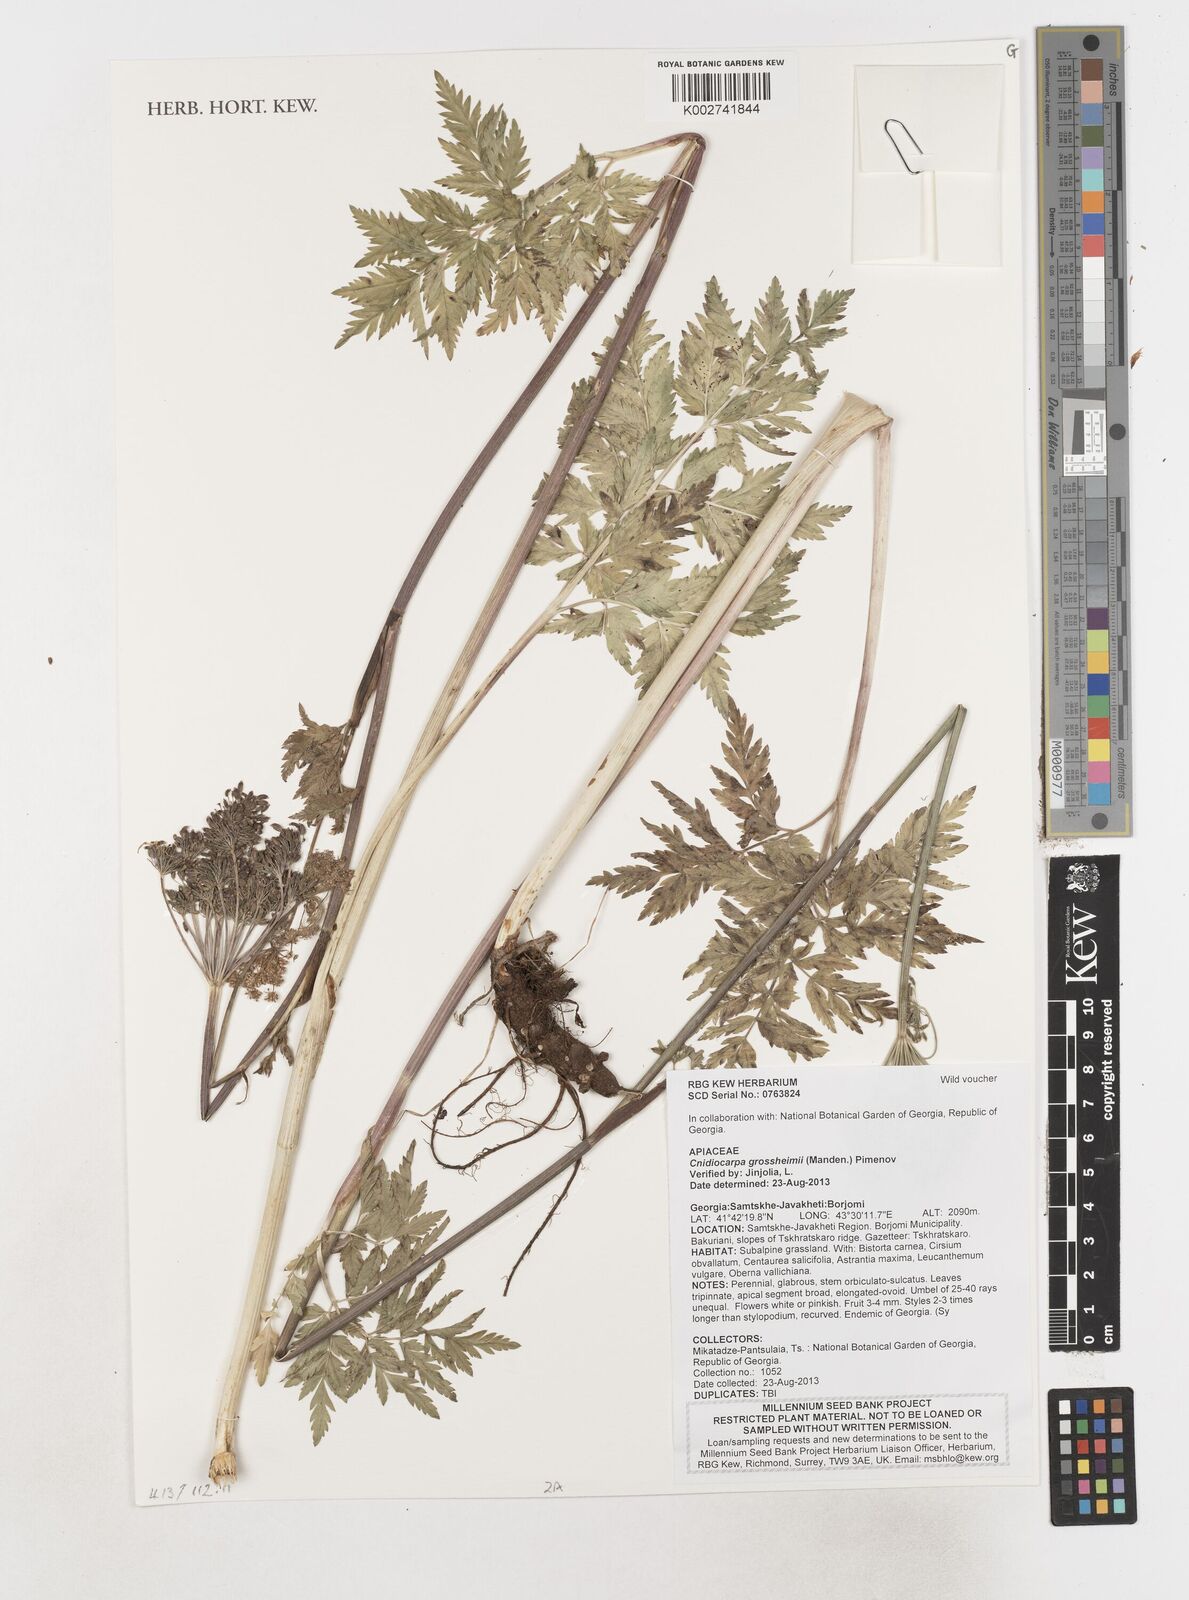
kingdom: Plantae
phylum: Tracheophyta
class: Magnoliopsida
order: Apiales
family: Apiaceae
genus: Cnidiocarpa
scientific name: Cnidiocarpa grossheimii
